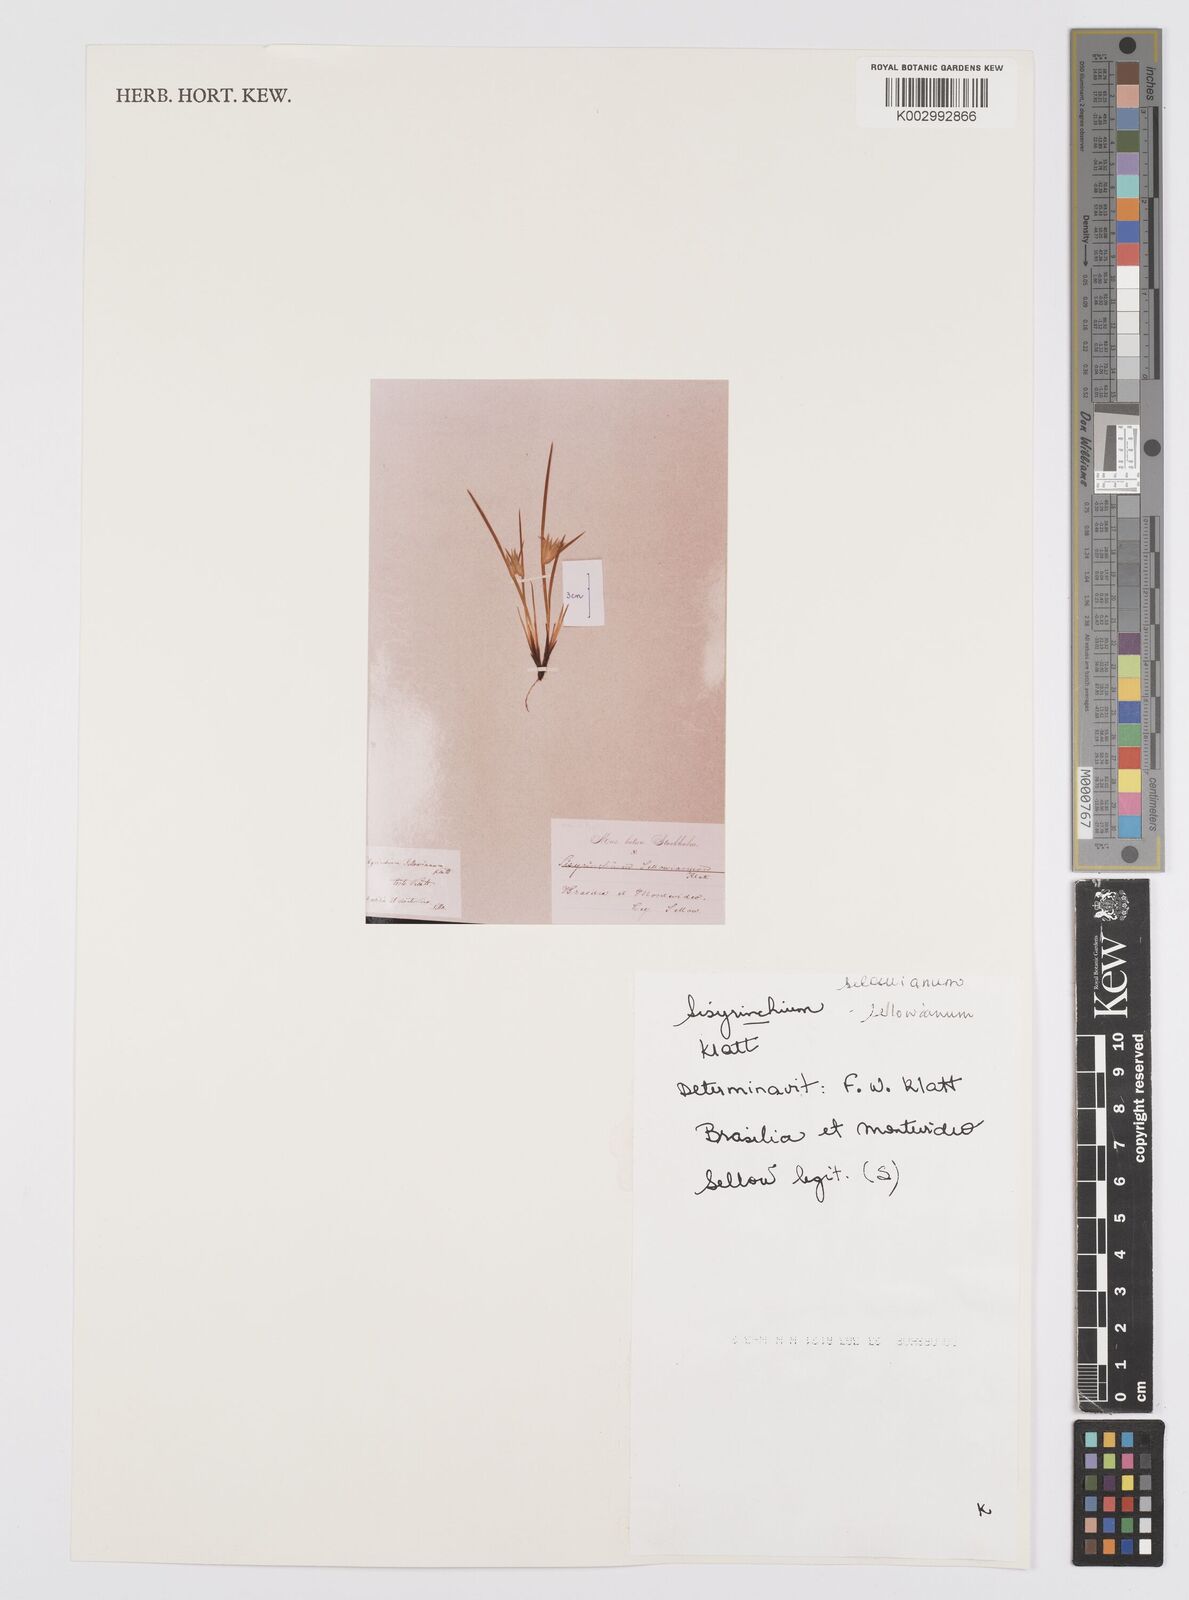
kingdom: Plantae
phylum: Tracheophyta
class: Liliopsida
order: Asparagales
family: Iridaceae
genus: Sisyrinchium
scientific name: Sisyrinchium sellowianum
